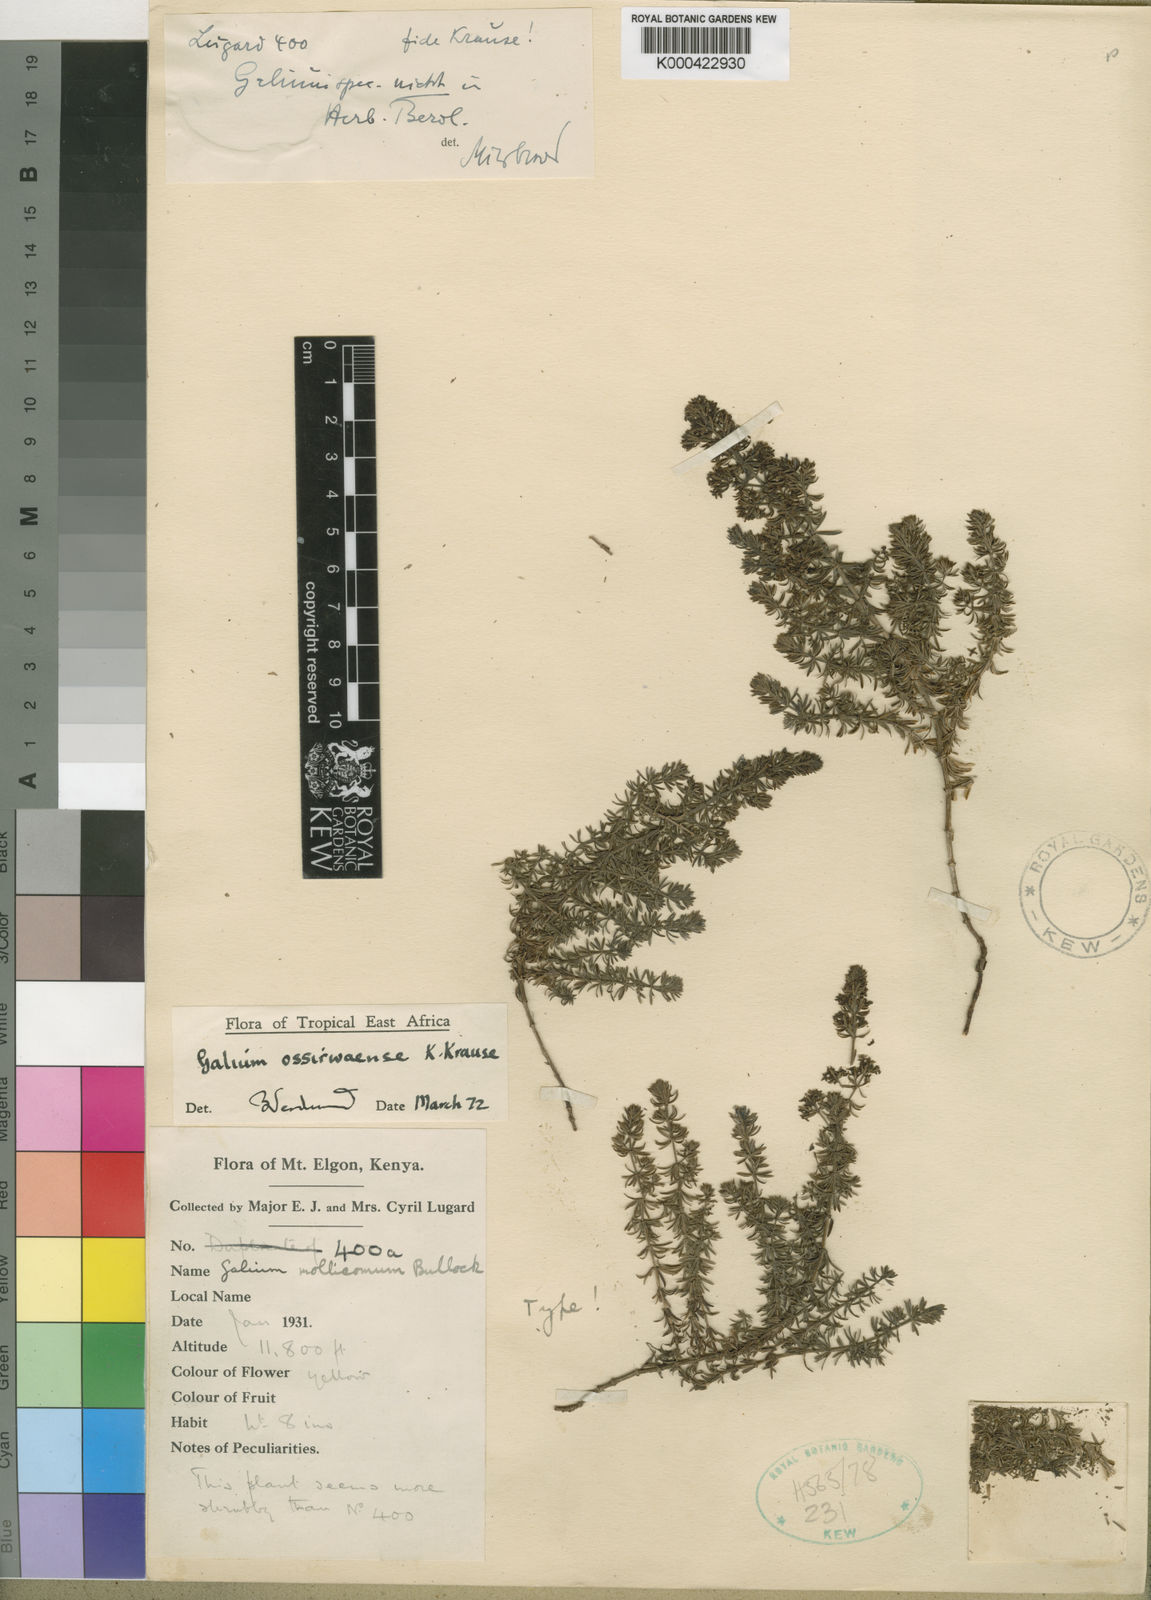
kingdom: Plantae
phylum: Tracheophyta
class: Magnoliopsida
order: Gentianales
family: Rubiaceae
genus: Galium
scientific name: Galium ossirwaense
